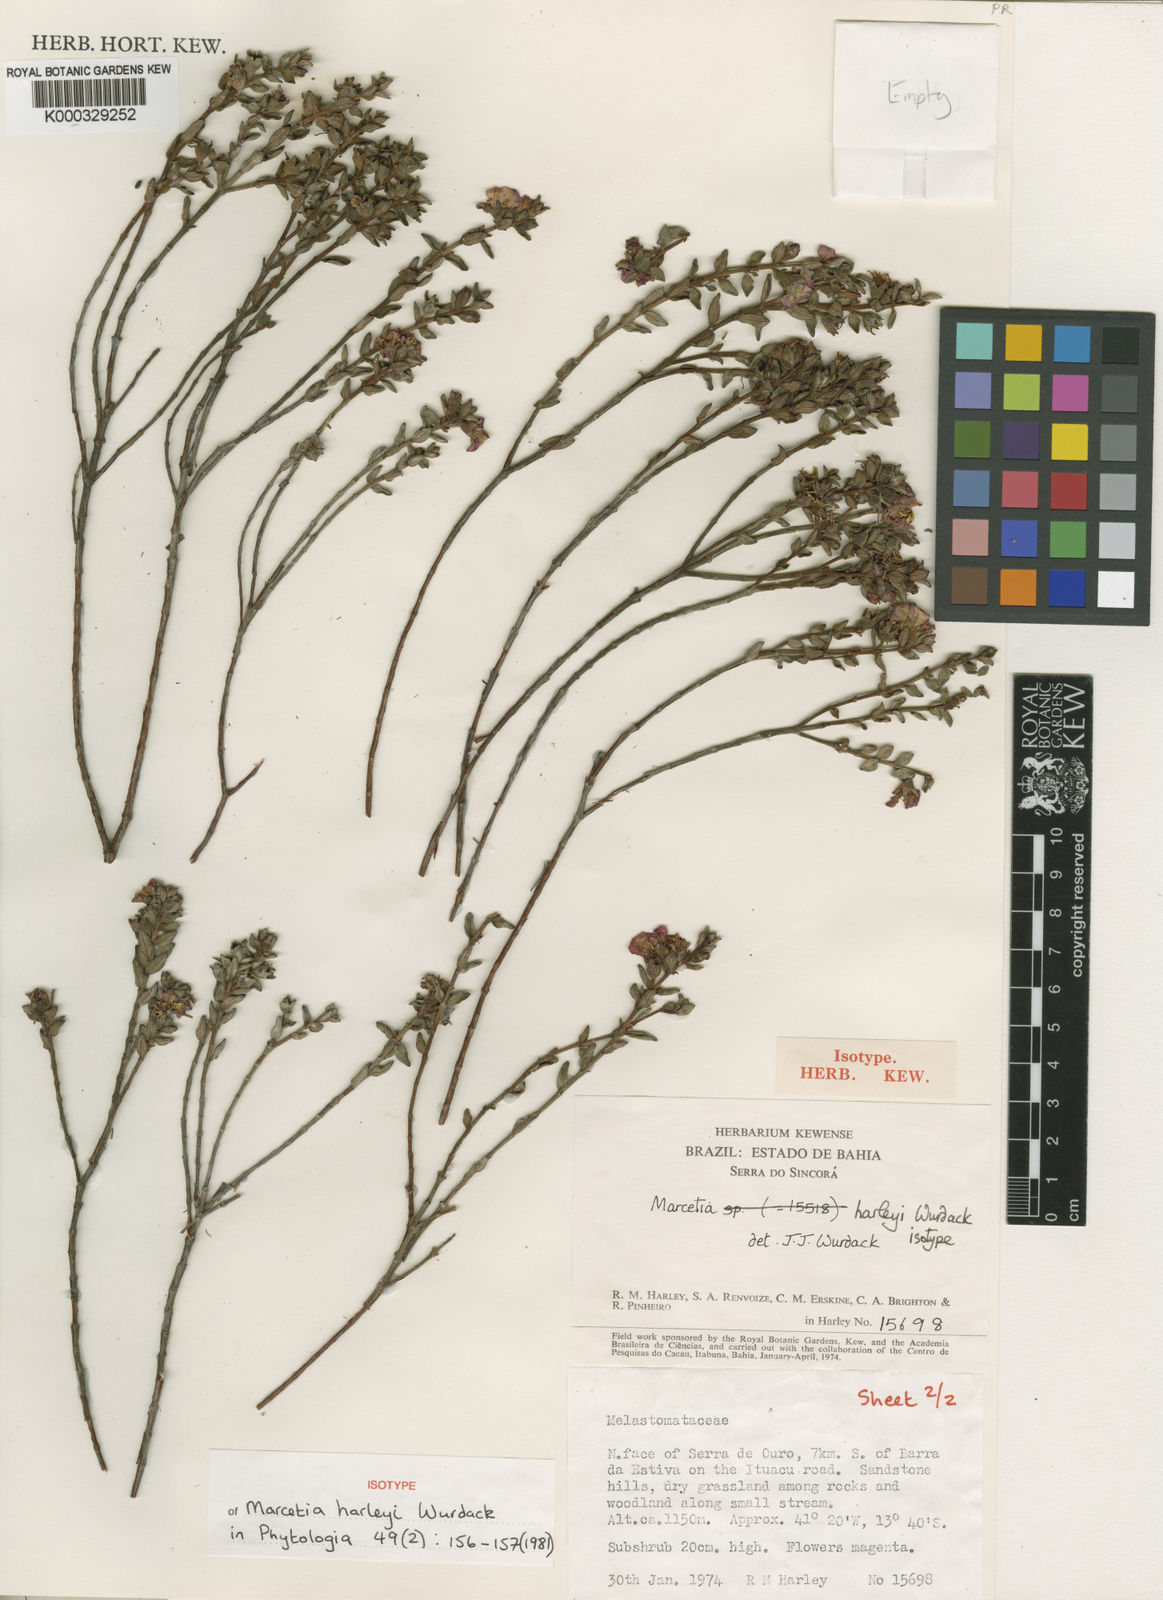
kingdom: Plantae
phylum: Tracheophyta
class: Magnoliopsida
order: Myrtales
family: Melastomataceae
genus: Marcetia
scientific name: Marcetia harleyi
